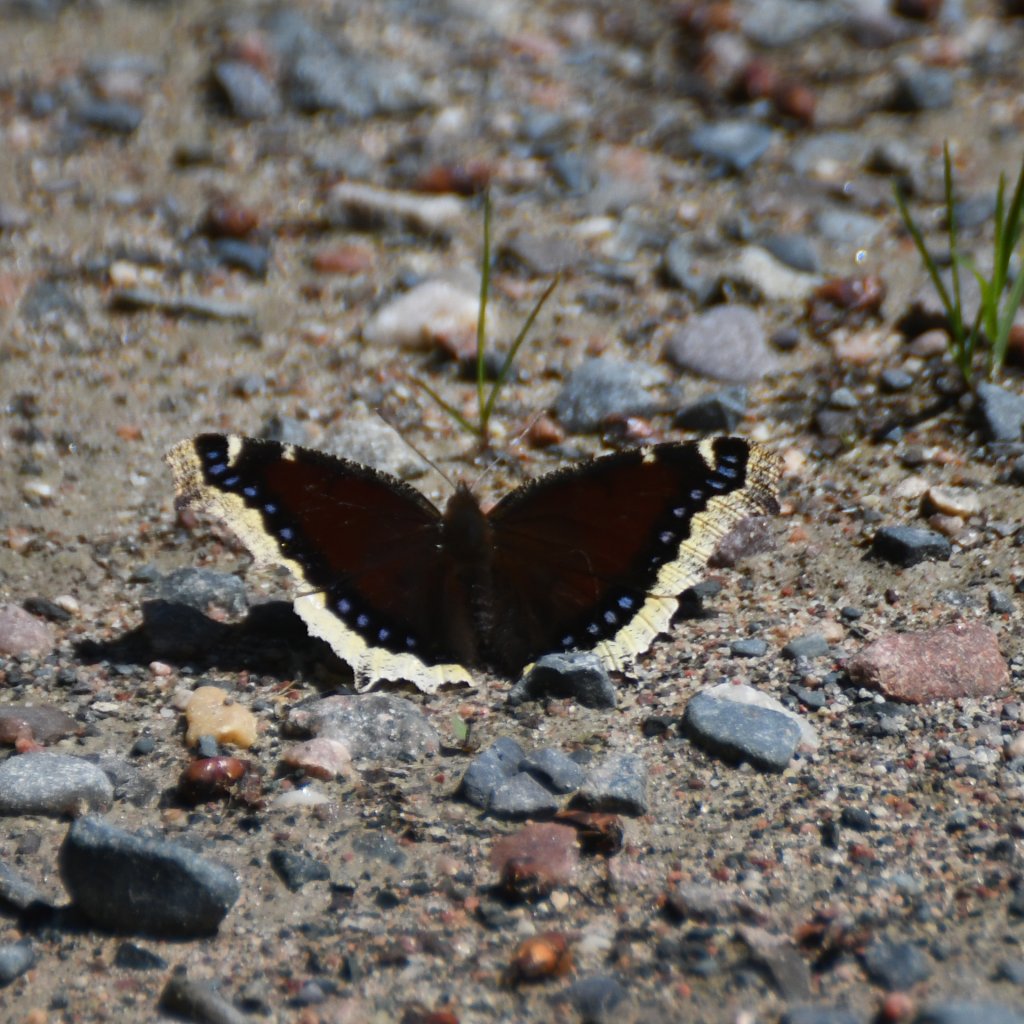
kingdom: Animalia
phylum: Arthropoda
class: Insecta
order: Lepidoptera
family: Nymphalidae
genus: Nymphalis
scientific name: Nymphalis antiopa
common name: Mourning Cloak
